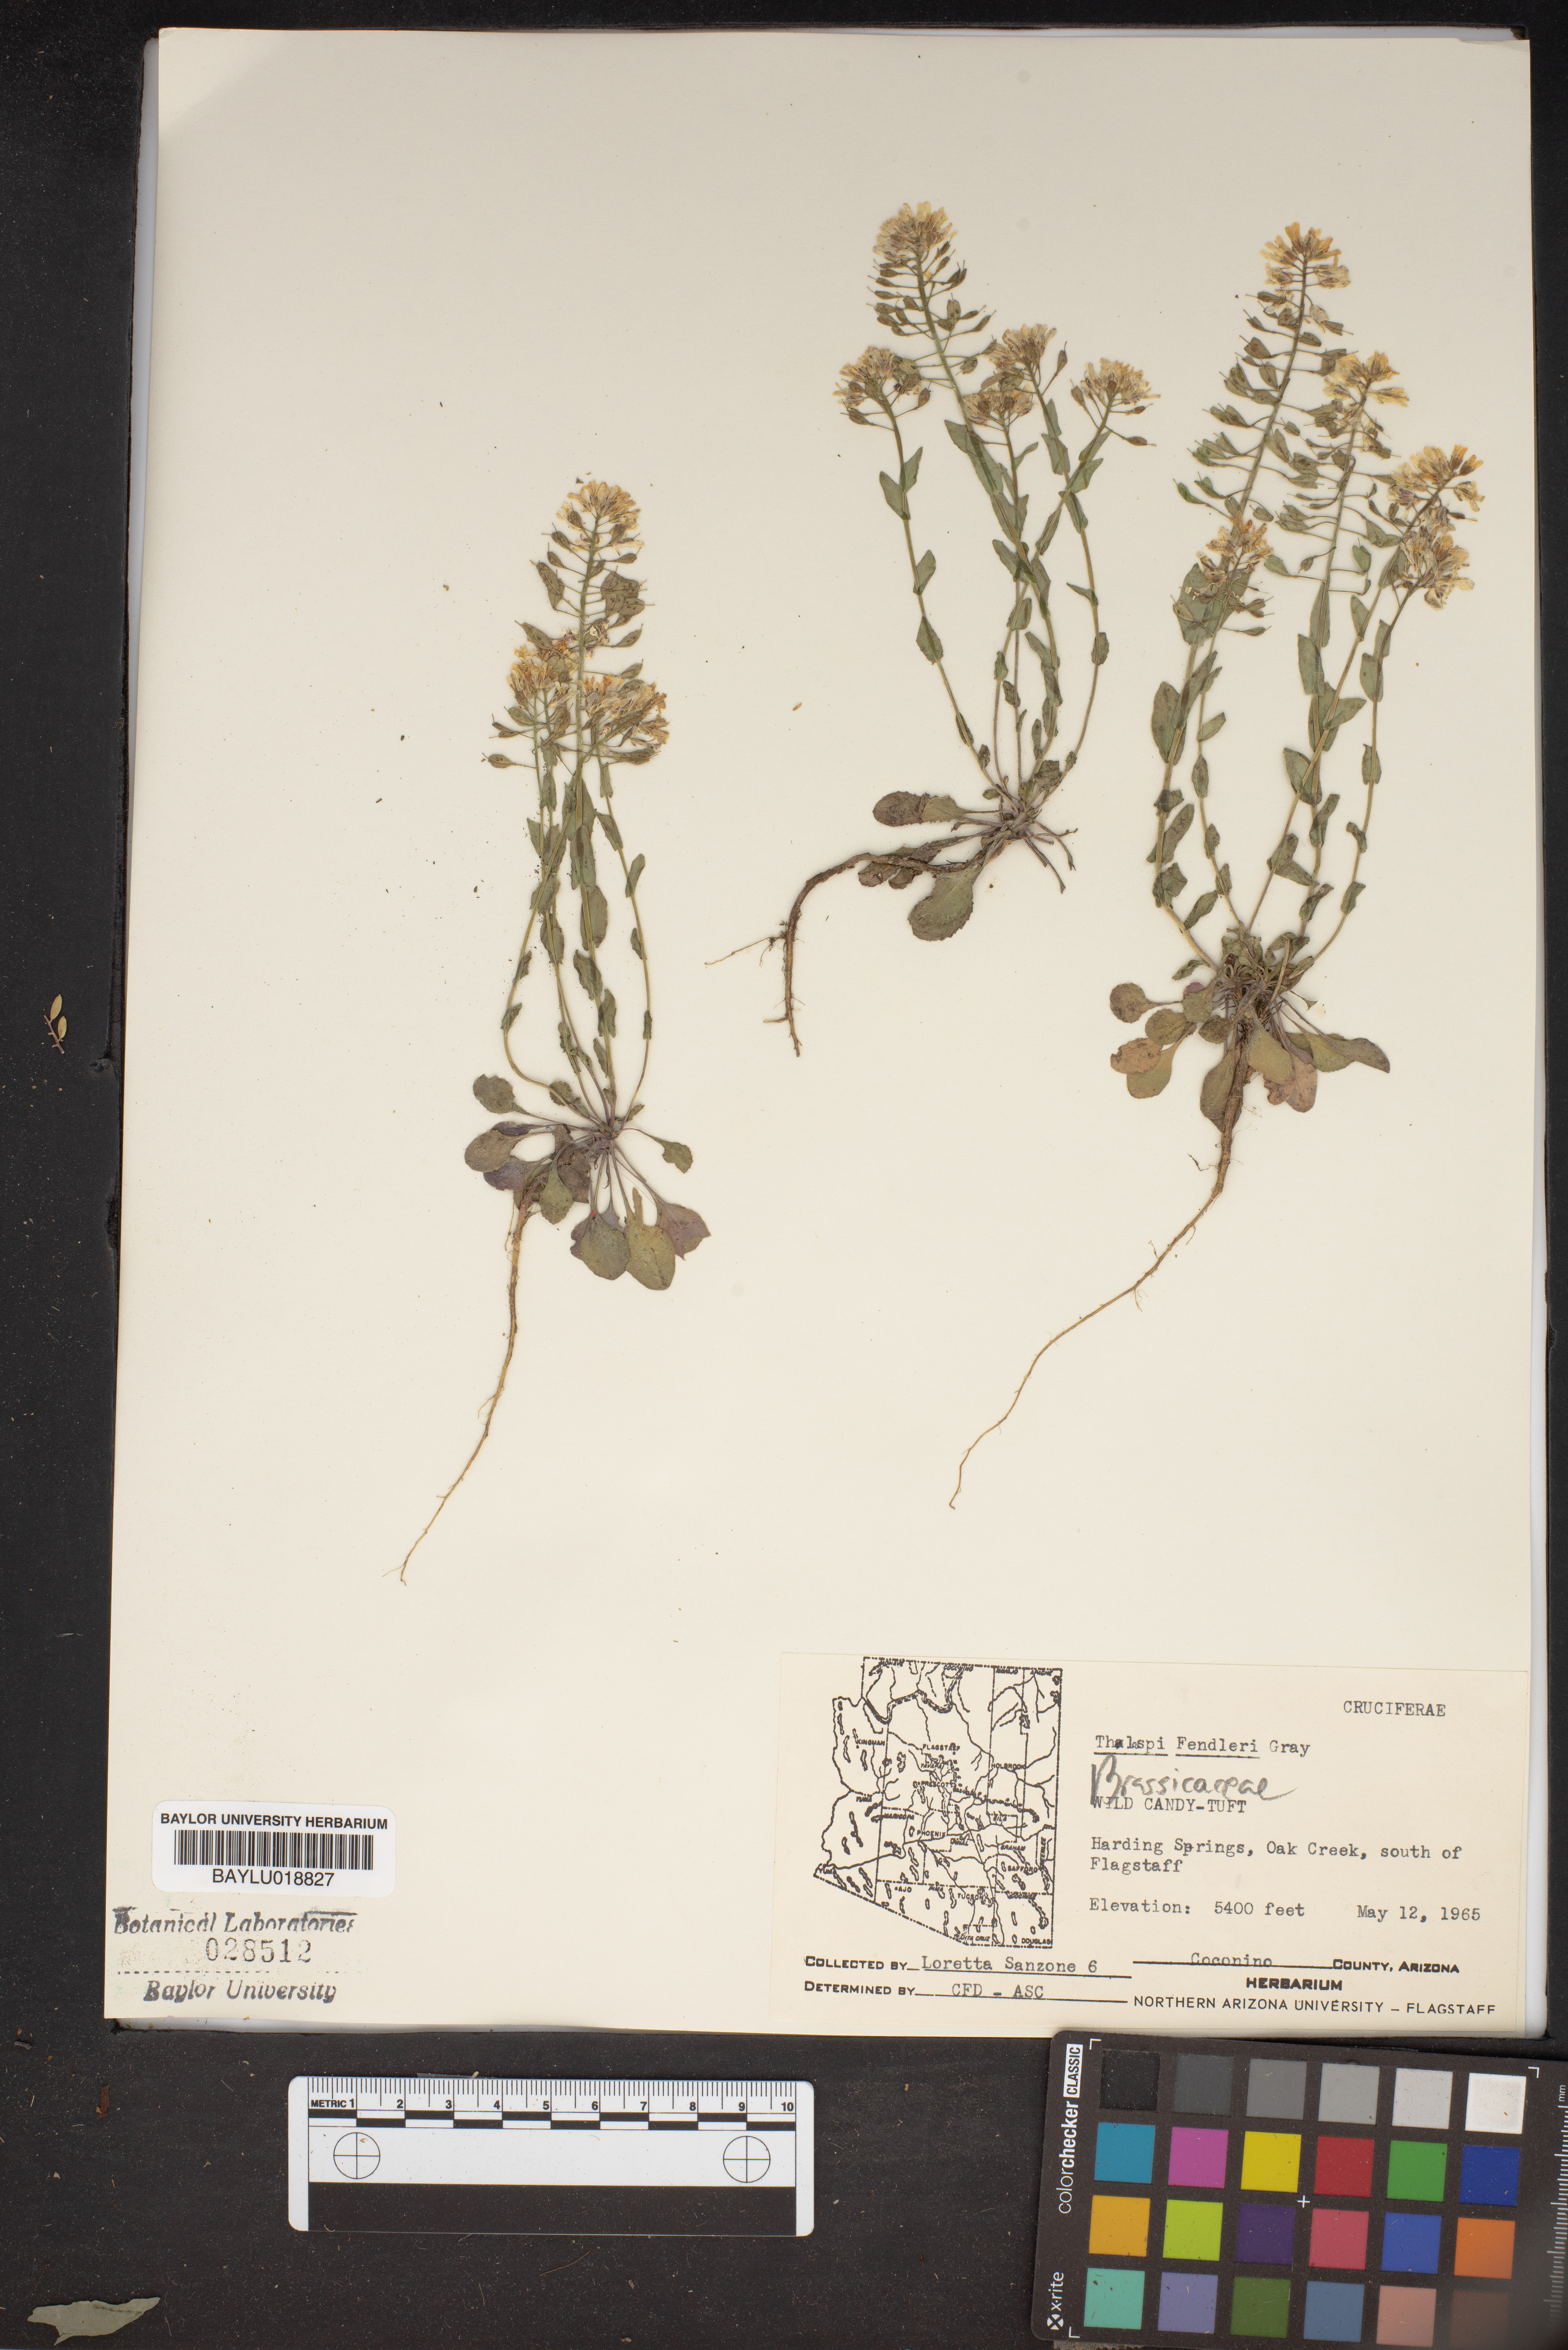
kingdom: Plantae
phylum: Tracheophyta
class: Magnoliopsida
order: Brassicales
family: Brassicaceae
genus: Noccaea
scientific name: Noccaea fendleri
